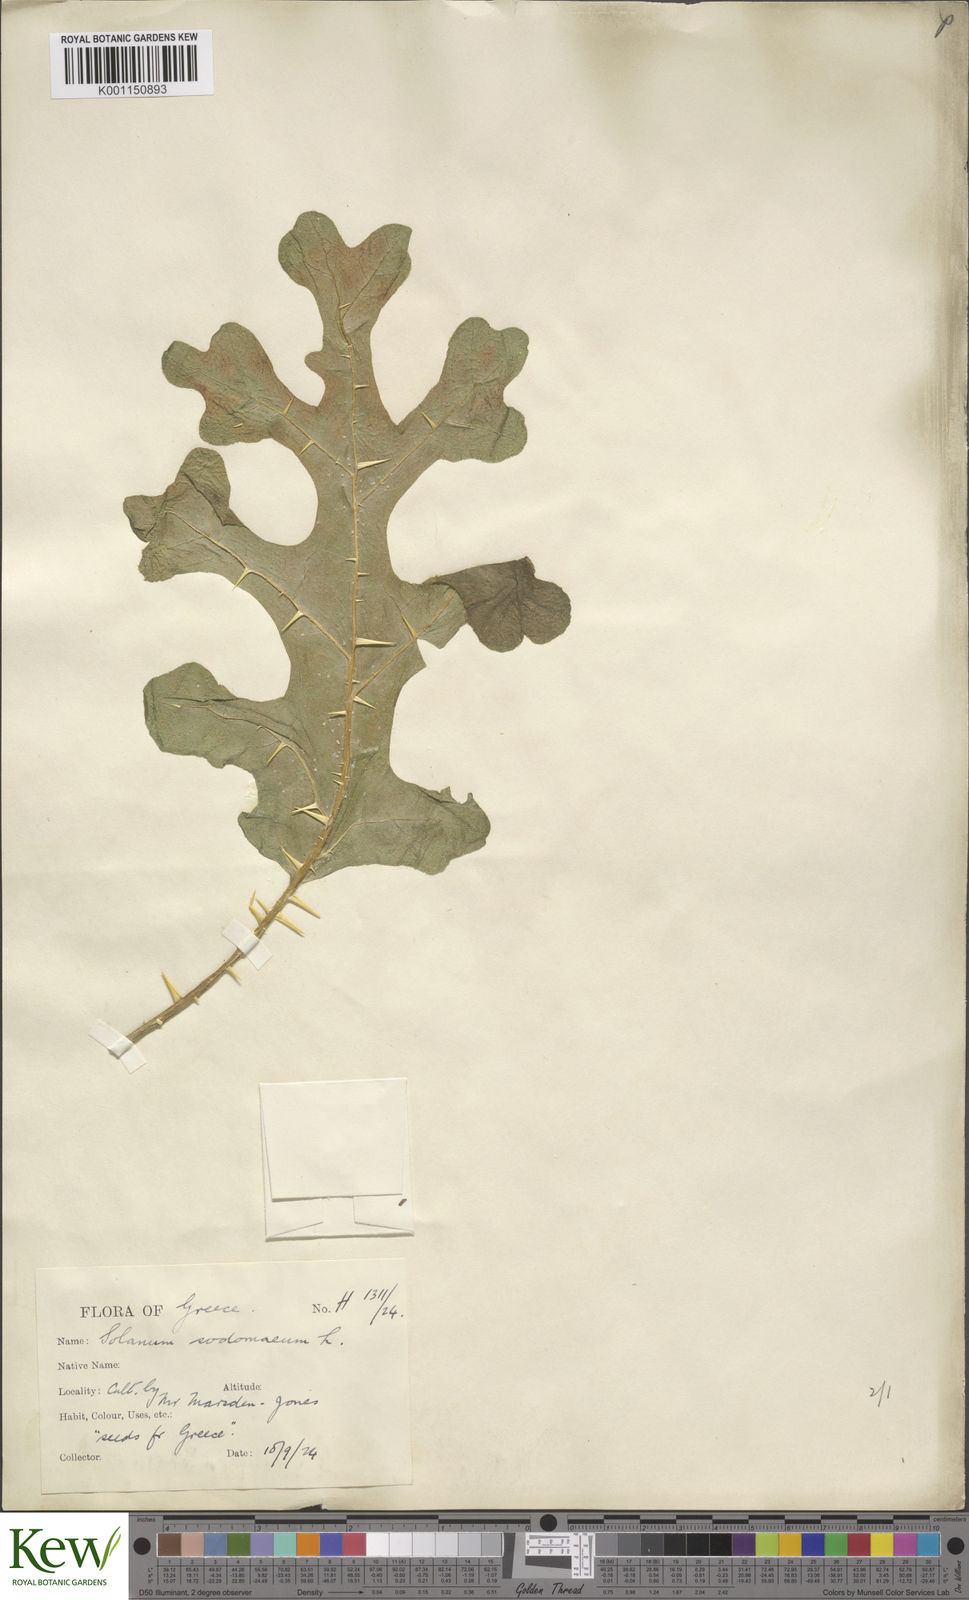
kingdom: Plantae
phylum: Tracheophyta
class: Magnoliopsida
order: Solanales
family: Solanaceae
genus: Solanum
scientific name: Solanum anguivi
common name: Forest bitterberry
